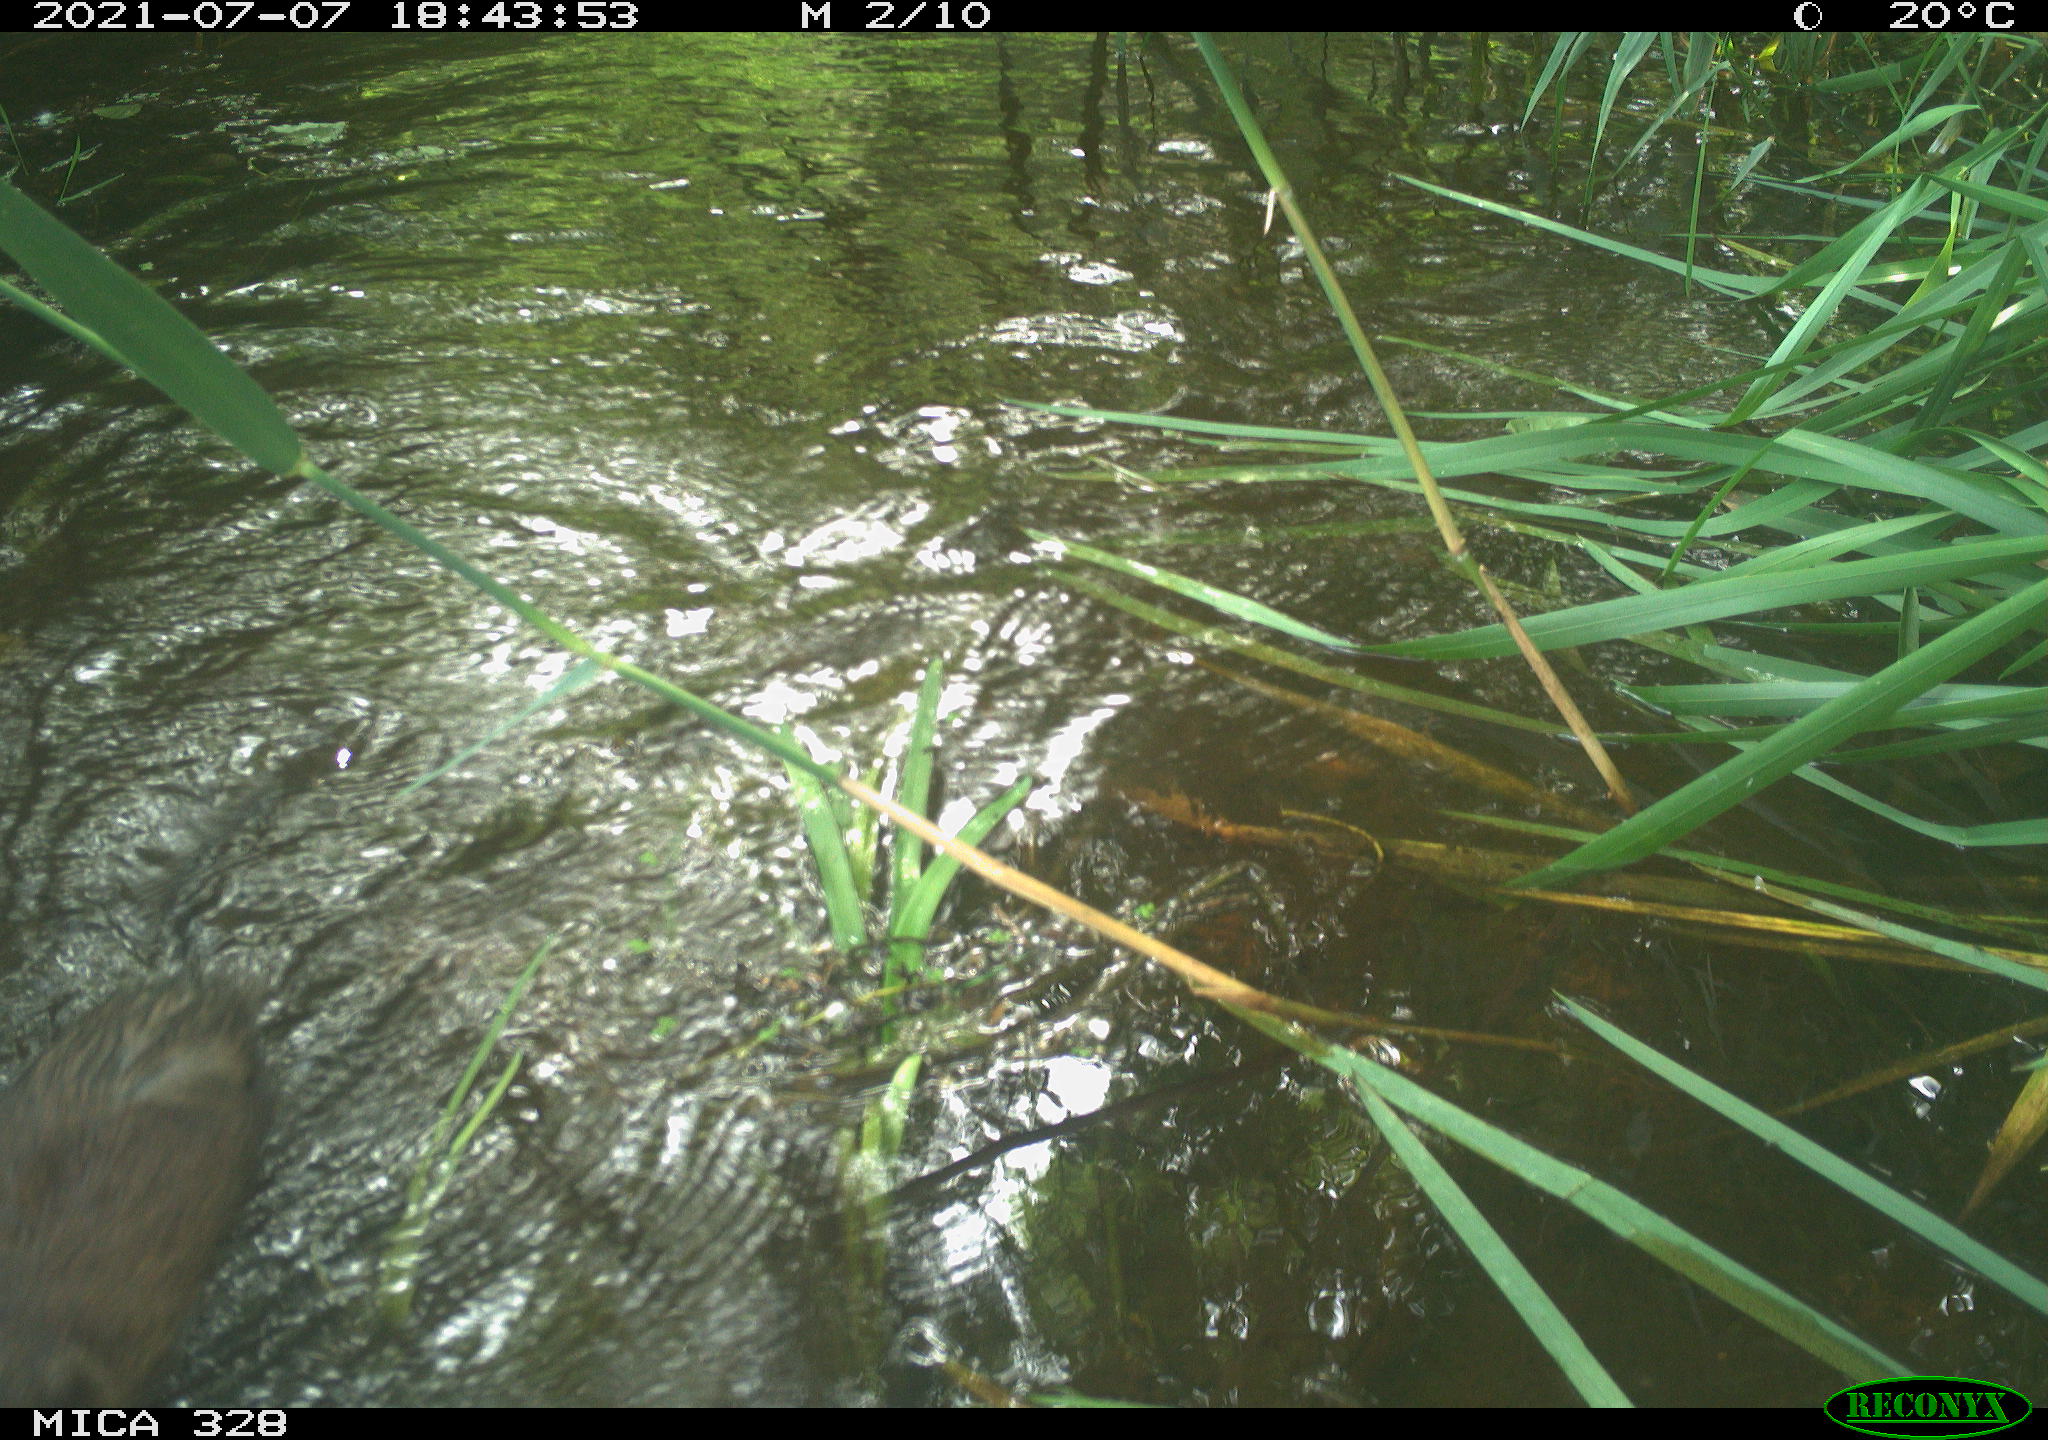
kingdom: Animalia
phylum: Chordata
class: Mammalia
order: Rodentia
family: Cricetidae
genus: Ondatra
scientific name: Ondatra zibethicus
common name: Muskrat
